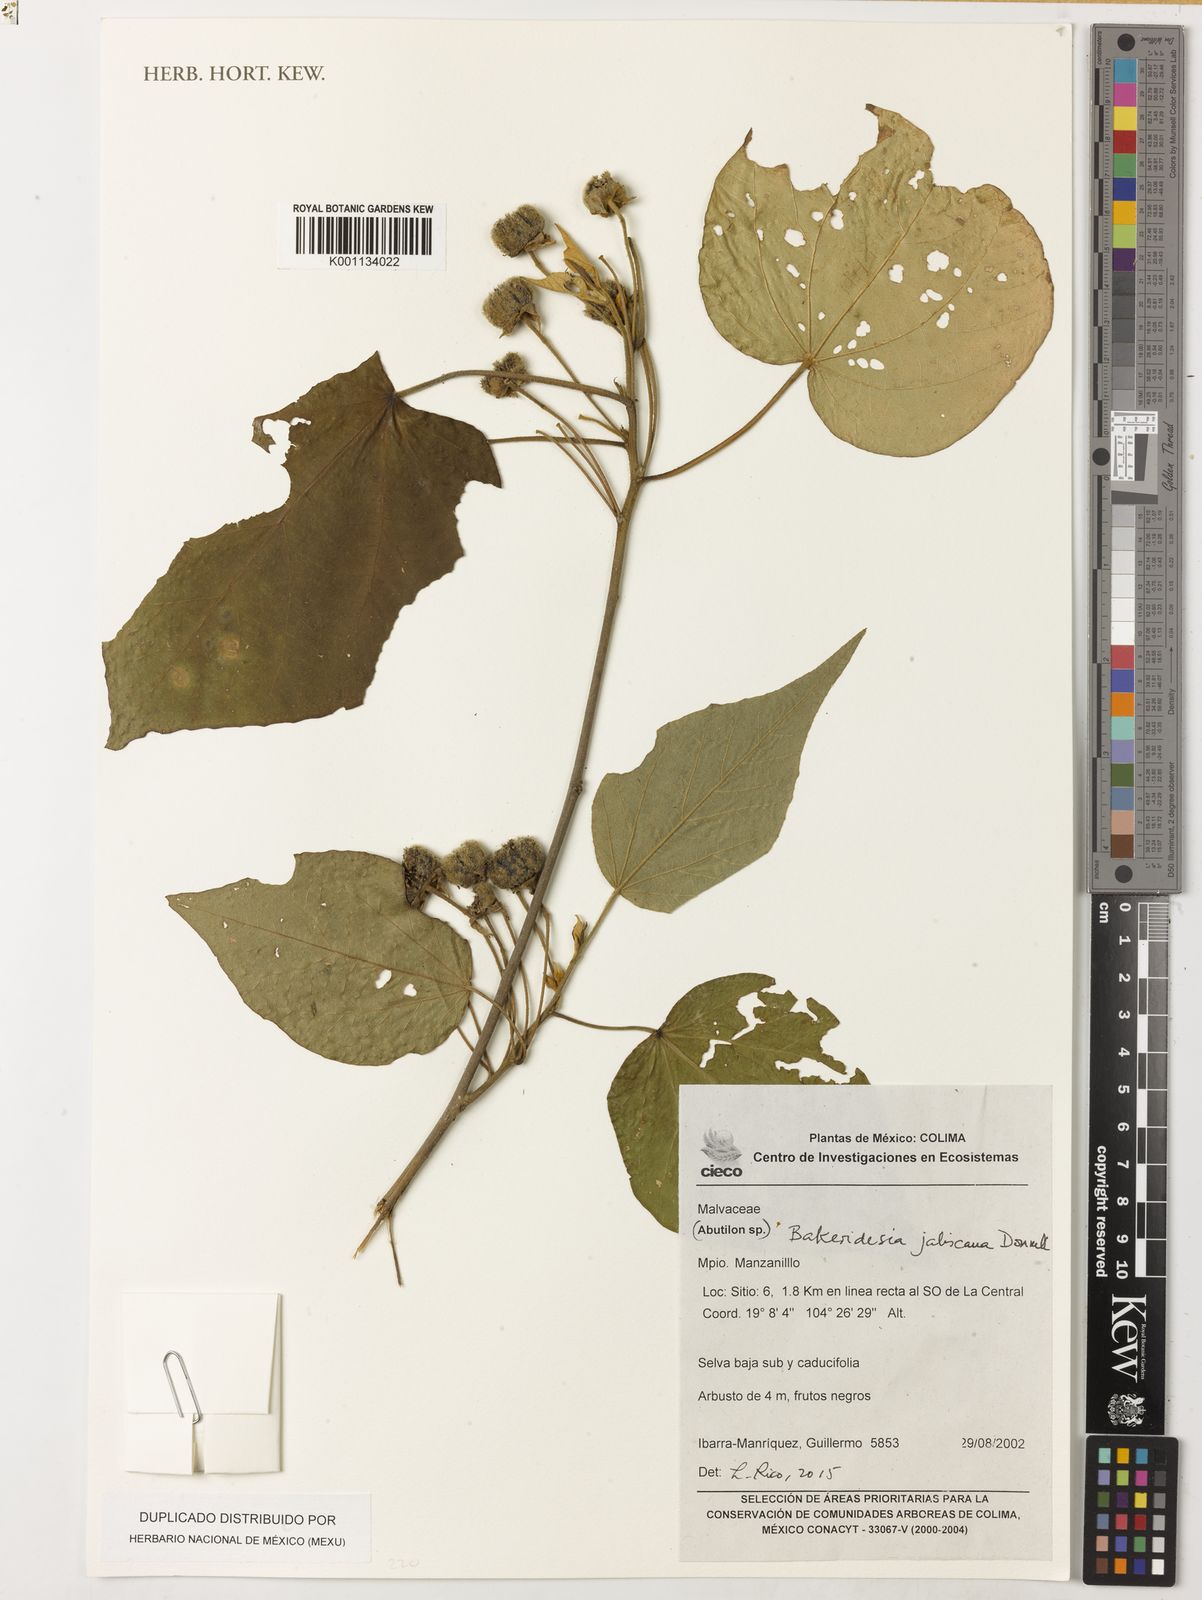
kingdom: Plantae
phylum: Tracheophyta
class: Magnoliopsida
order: Malvales
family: Malvaceae
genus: Bakeridesia
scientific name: Bakeridesia jaliscana
